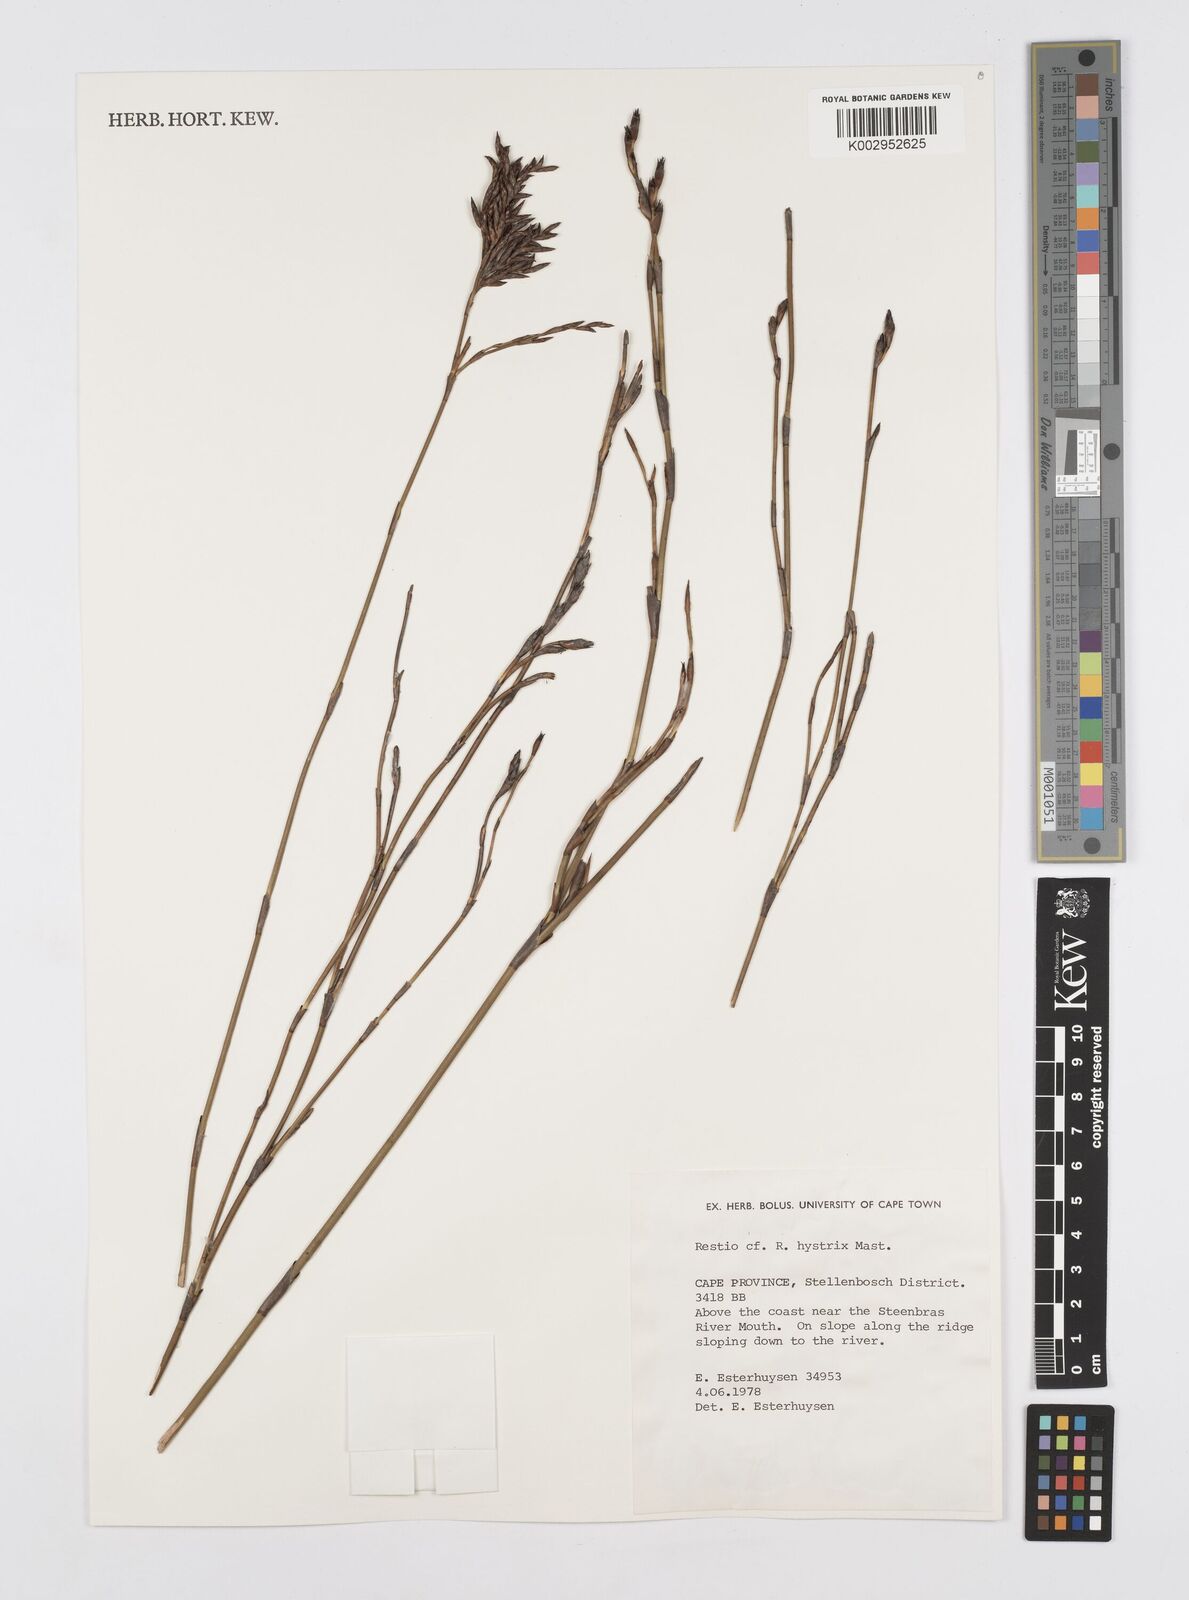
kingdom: Plantae
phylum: Tracheophyta
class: Liliopsida
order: Poales
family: Restionaceae
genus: Restio
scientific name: Restio hystrix
